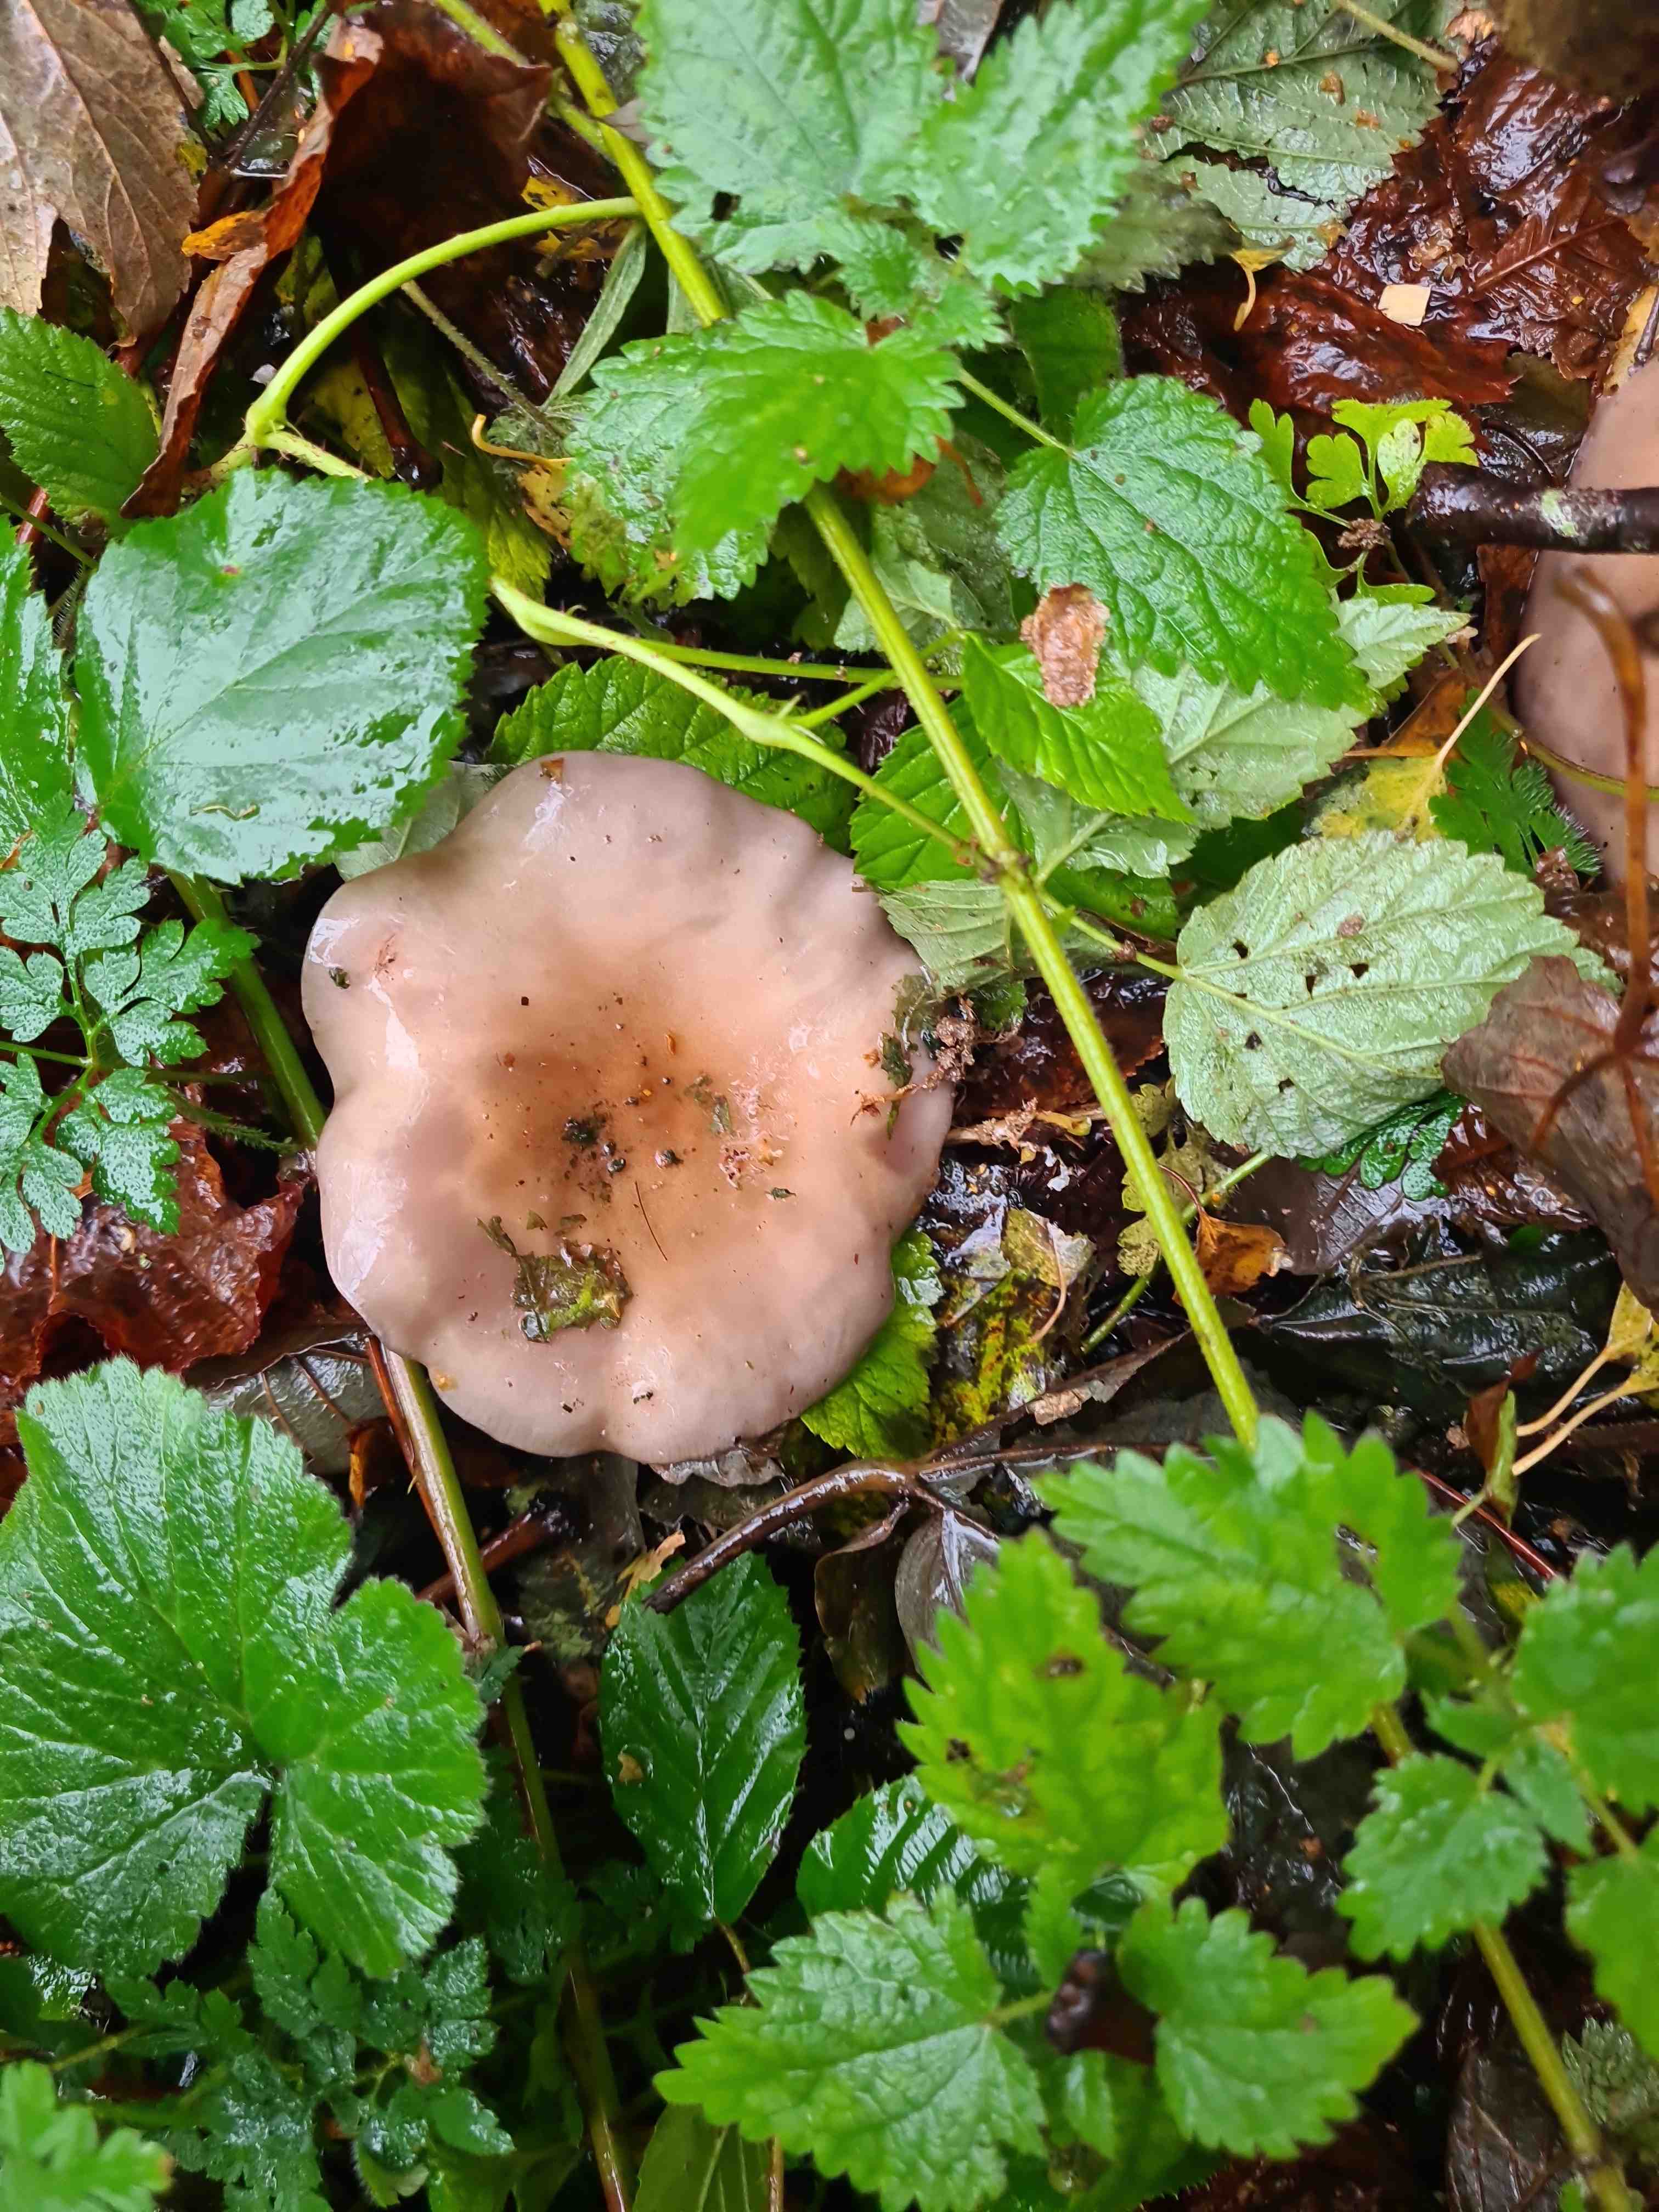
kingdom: Fungi
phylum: Basidiomycota
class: Agaricomycetes
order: Agaricales
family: Tricholomataceae
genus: Lepista
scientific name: Lepista nuda
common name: violet hekseringshat
